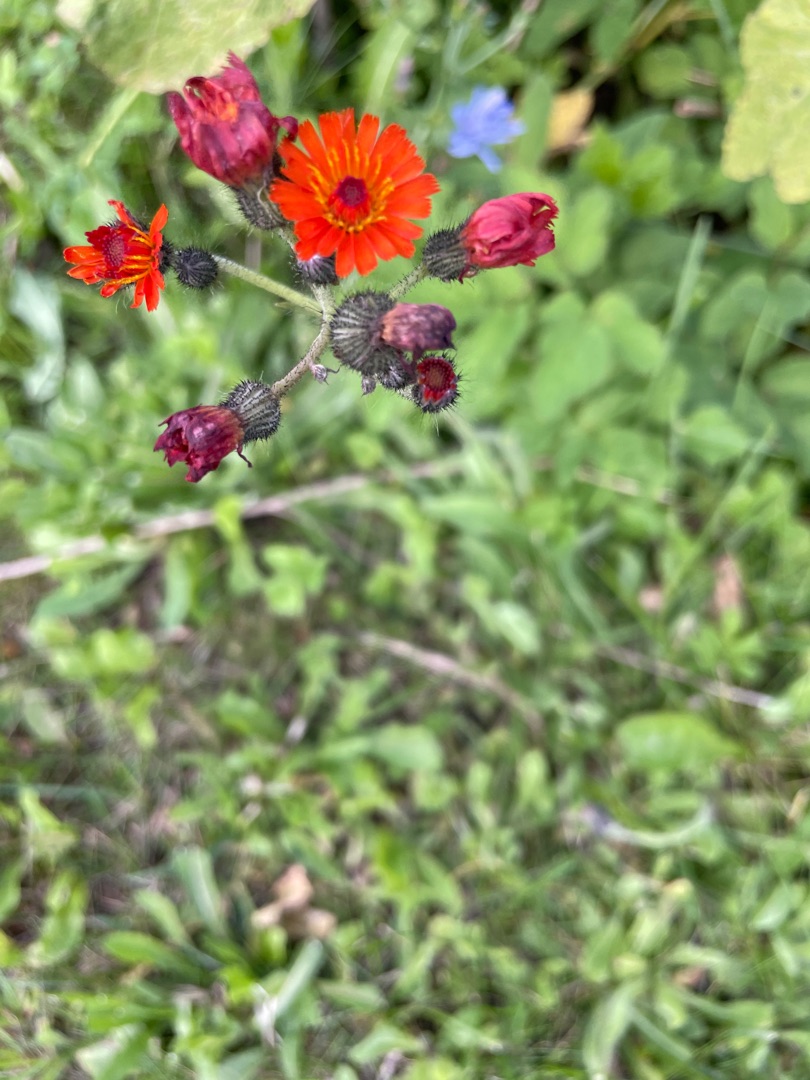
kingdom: Plantae
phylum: Tracheophyta
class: Magnoliopsida
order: Asterales
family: Asteraceae
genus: Pilosella
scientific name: Pilosella aurantiaca
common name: Pomerans-høgeurt
